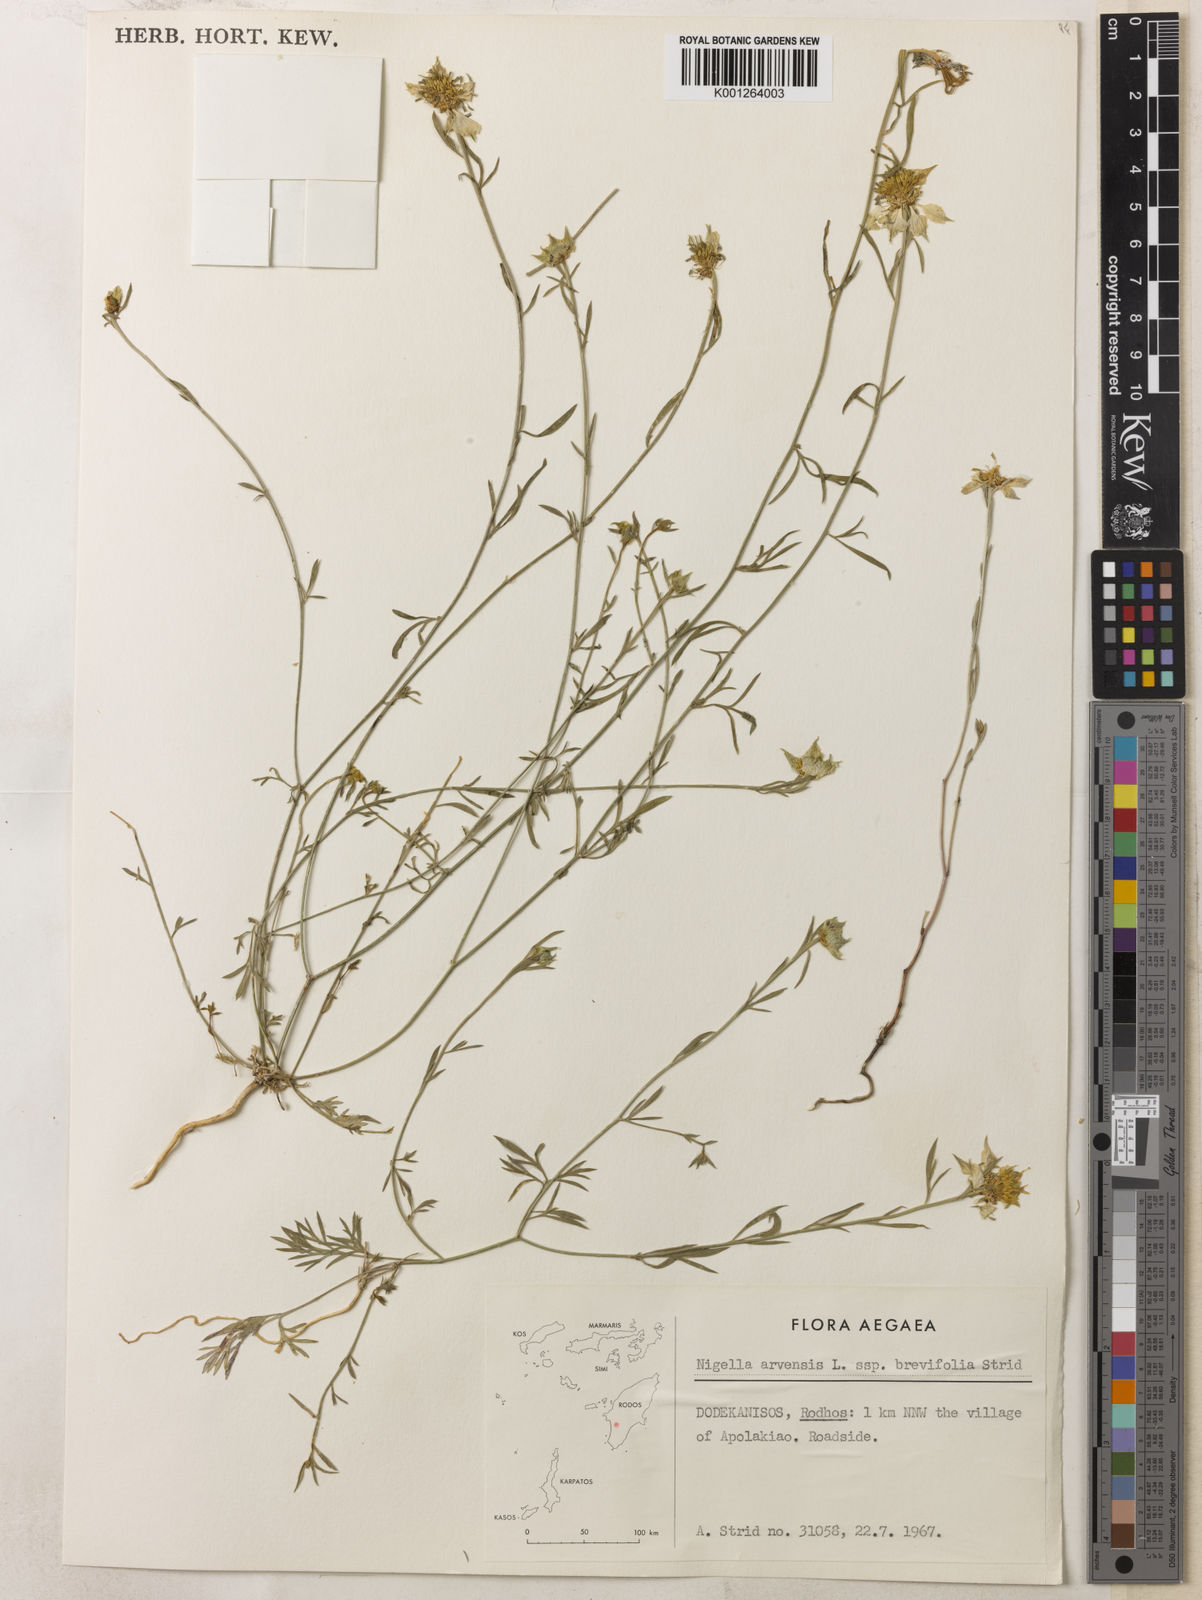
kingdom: Plantae
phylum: Tracheophyta
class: Magnoliopsida
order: Ranunculales
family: Ranunculaceae
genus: Nigella
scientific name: Nigella arvensis
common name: Wild fennel-flower
